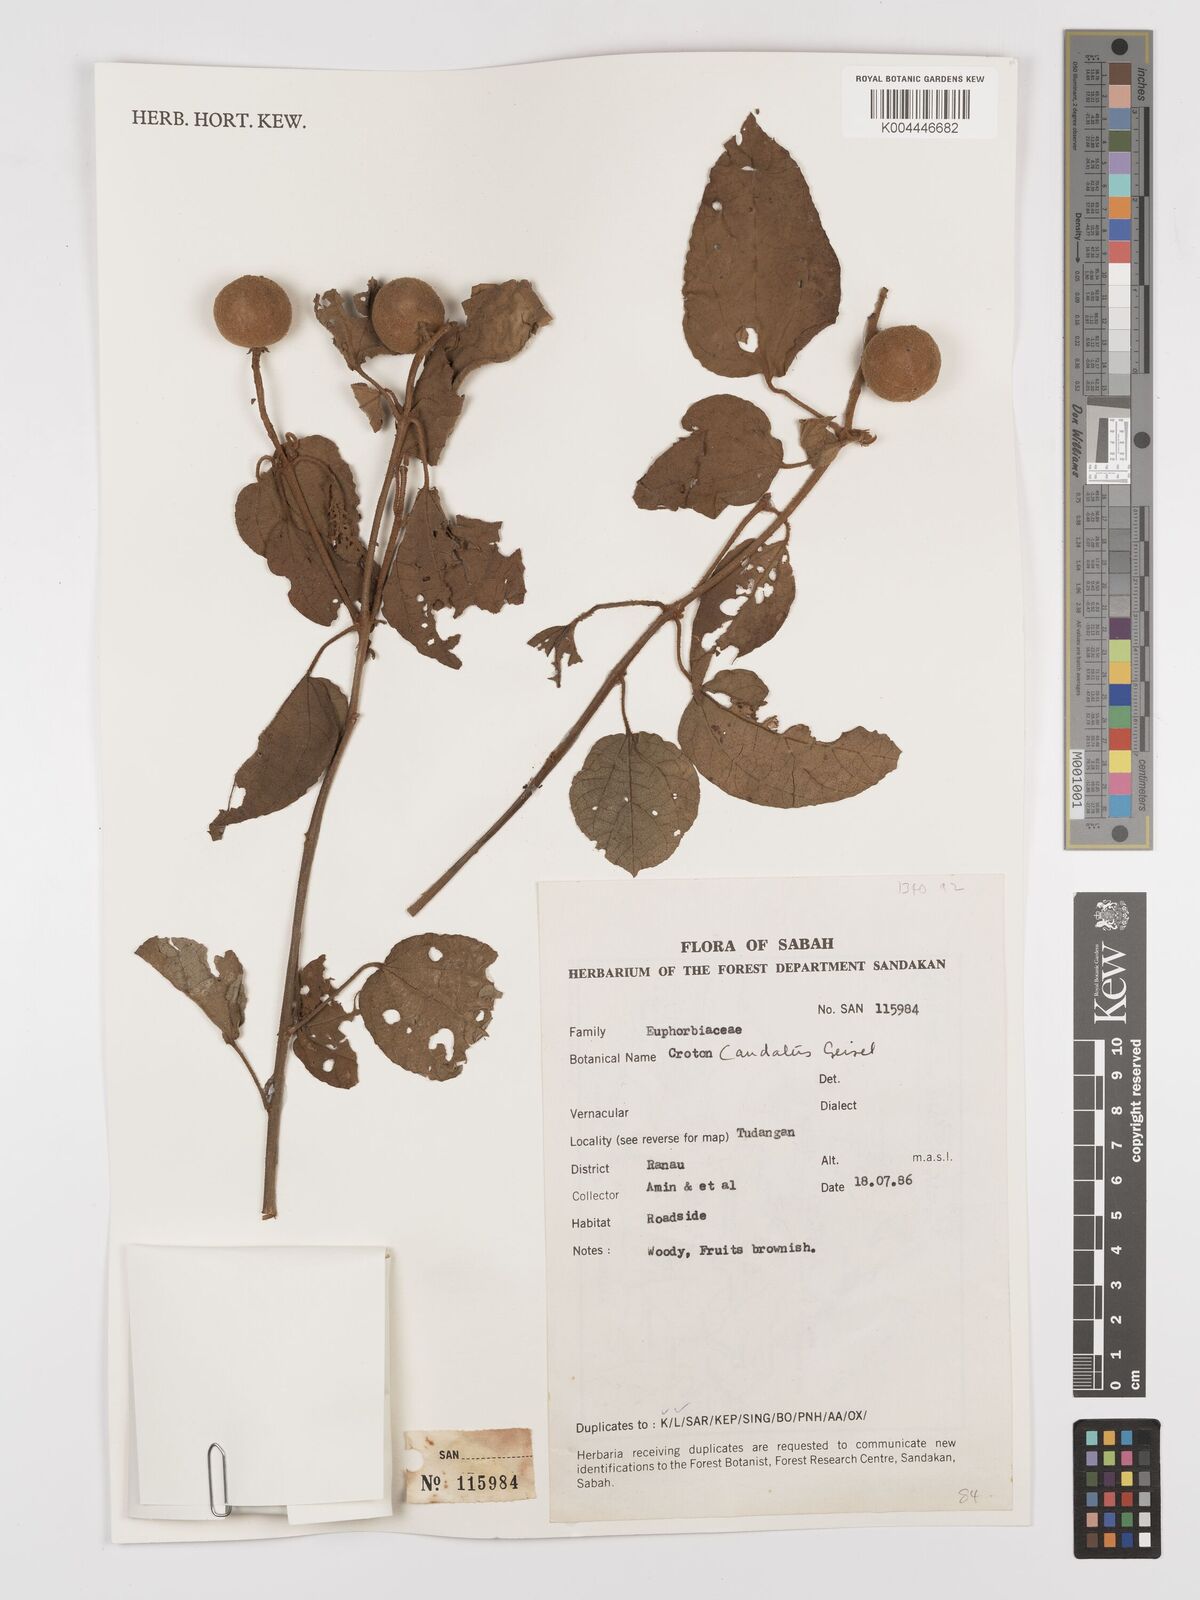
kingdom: Plantae
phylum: Tracheophyta
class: Magnoliopsida
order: Malpighiales
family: Euphorbiaceae
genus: Croton
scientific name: Croton caudatus
